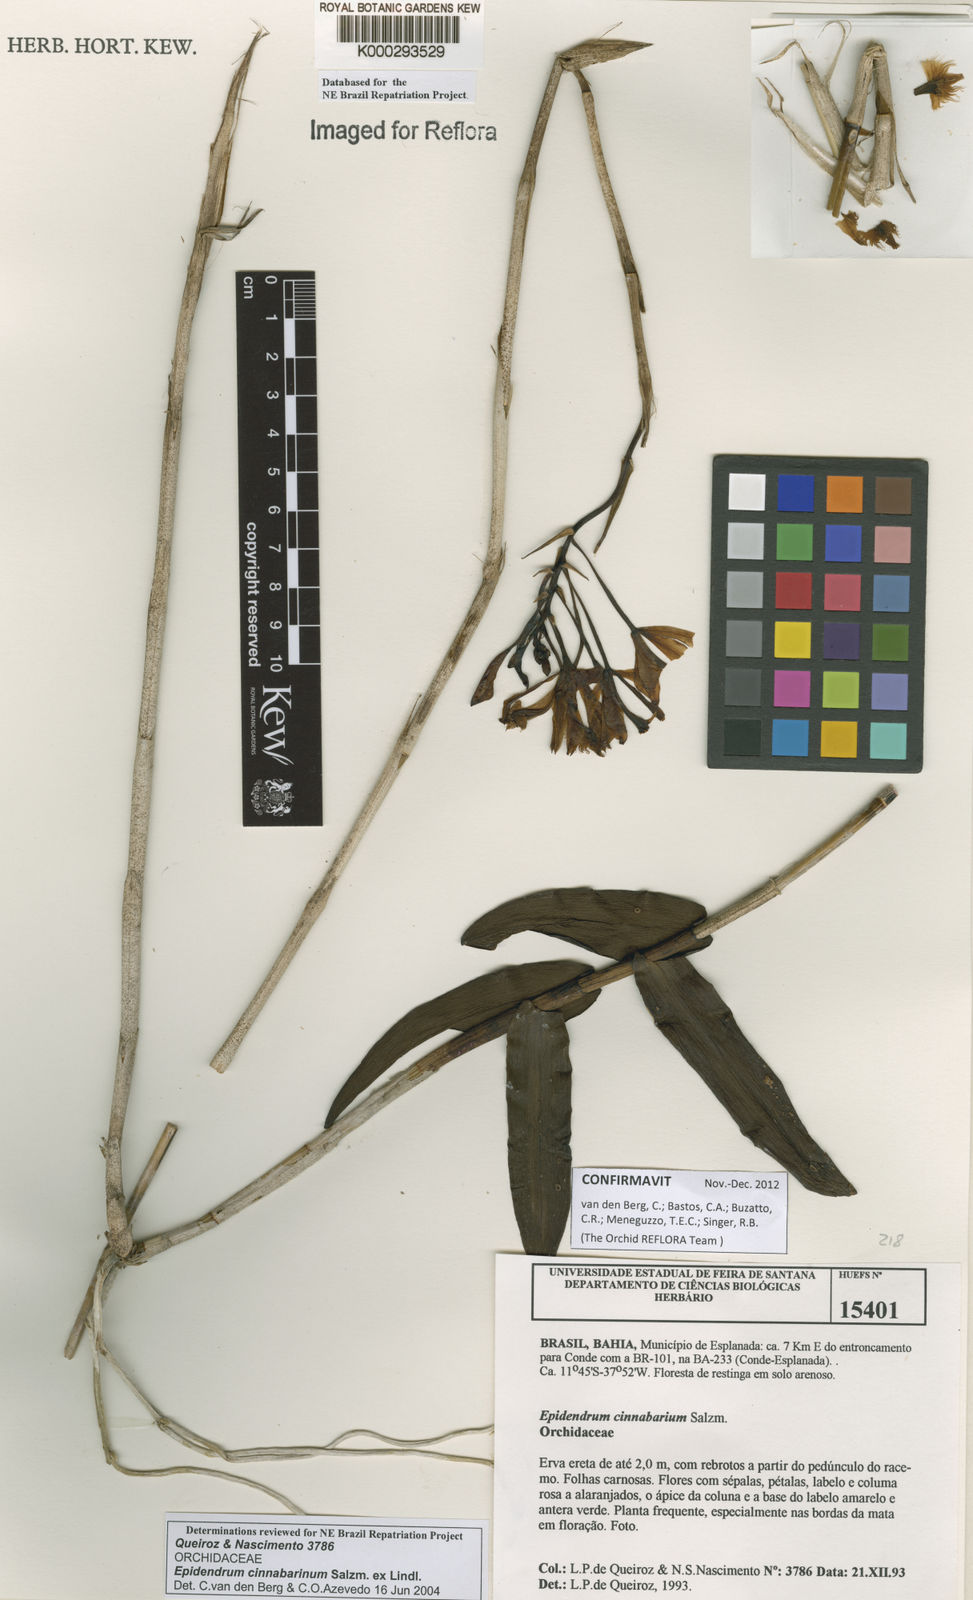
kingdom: Plantae
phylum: Tracheophyta
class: Liliopsida
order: Asparagales
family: Orchidaceae
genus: Epidendrum
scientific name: Epidendrum cinnabarinum
